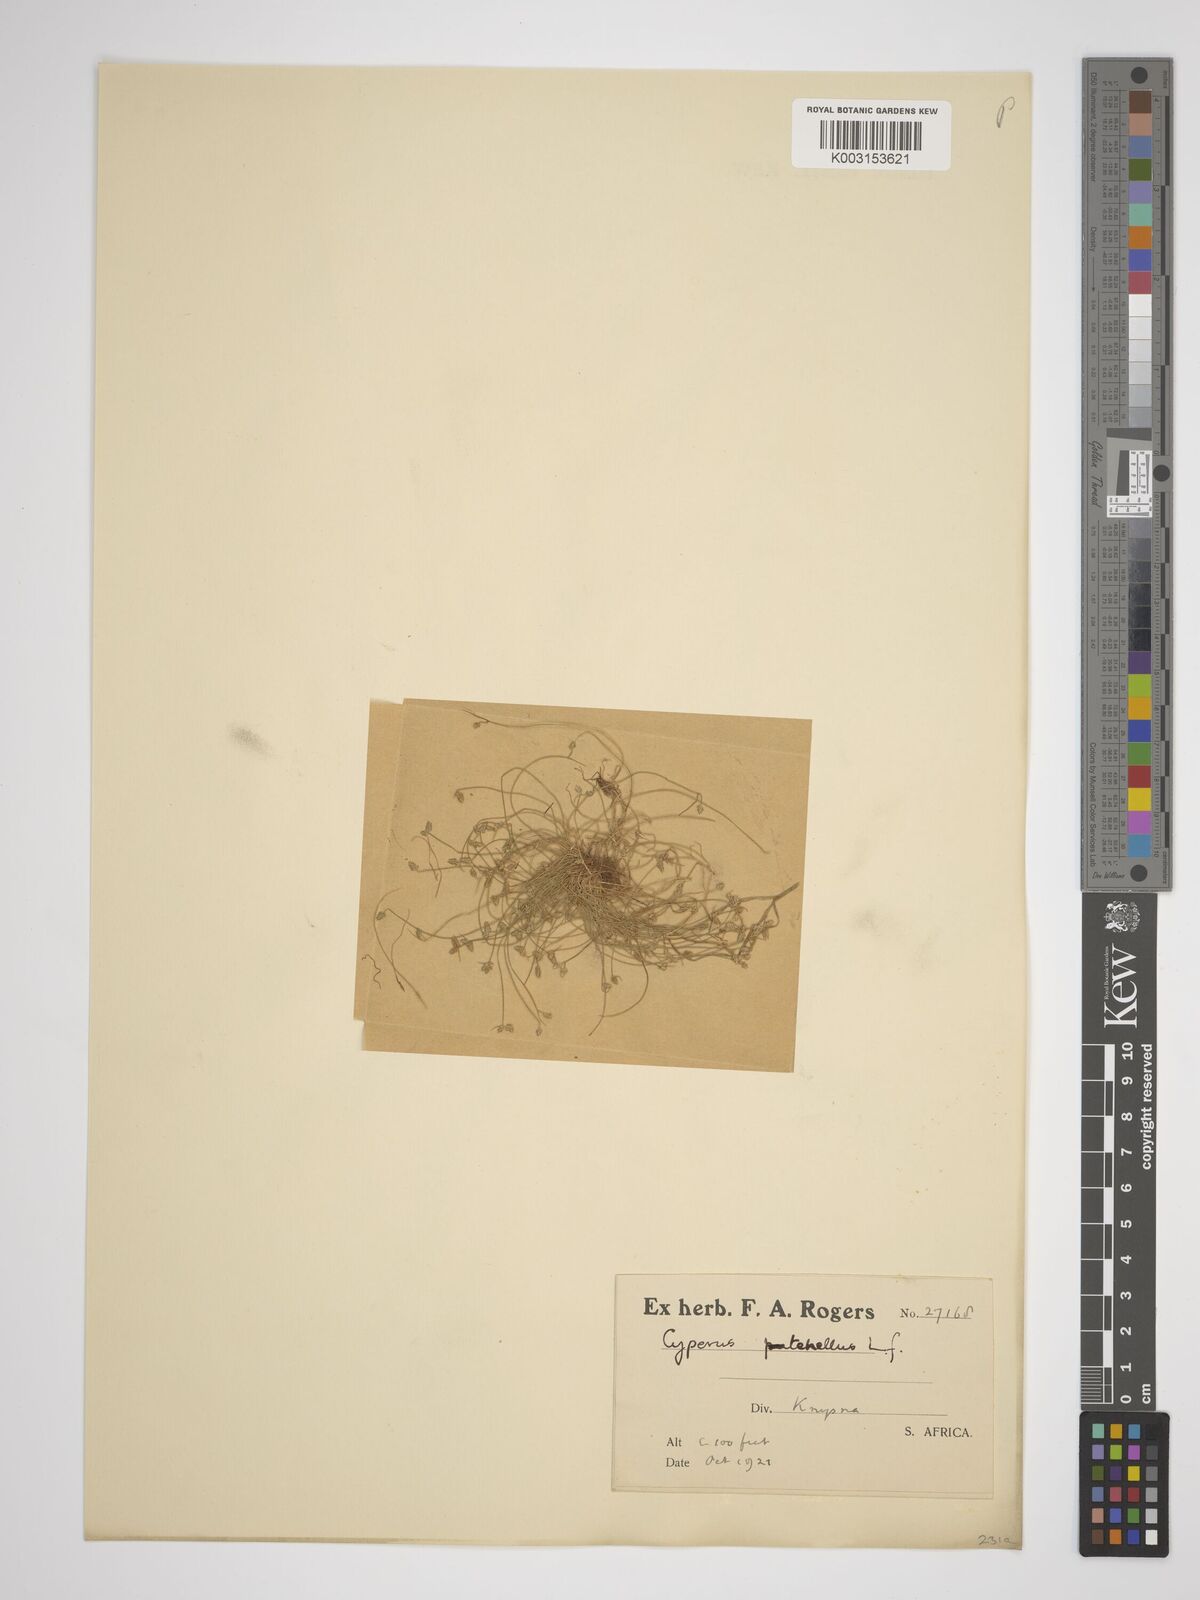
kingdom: Plantae
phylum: Tracheophyta
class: Liliopsida
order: Poales
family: Cyperaceae
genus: Isolepis
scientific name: Isolepis levynsiana
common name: Sedge
